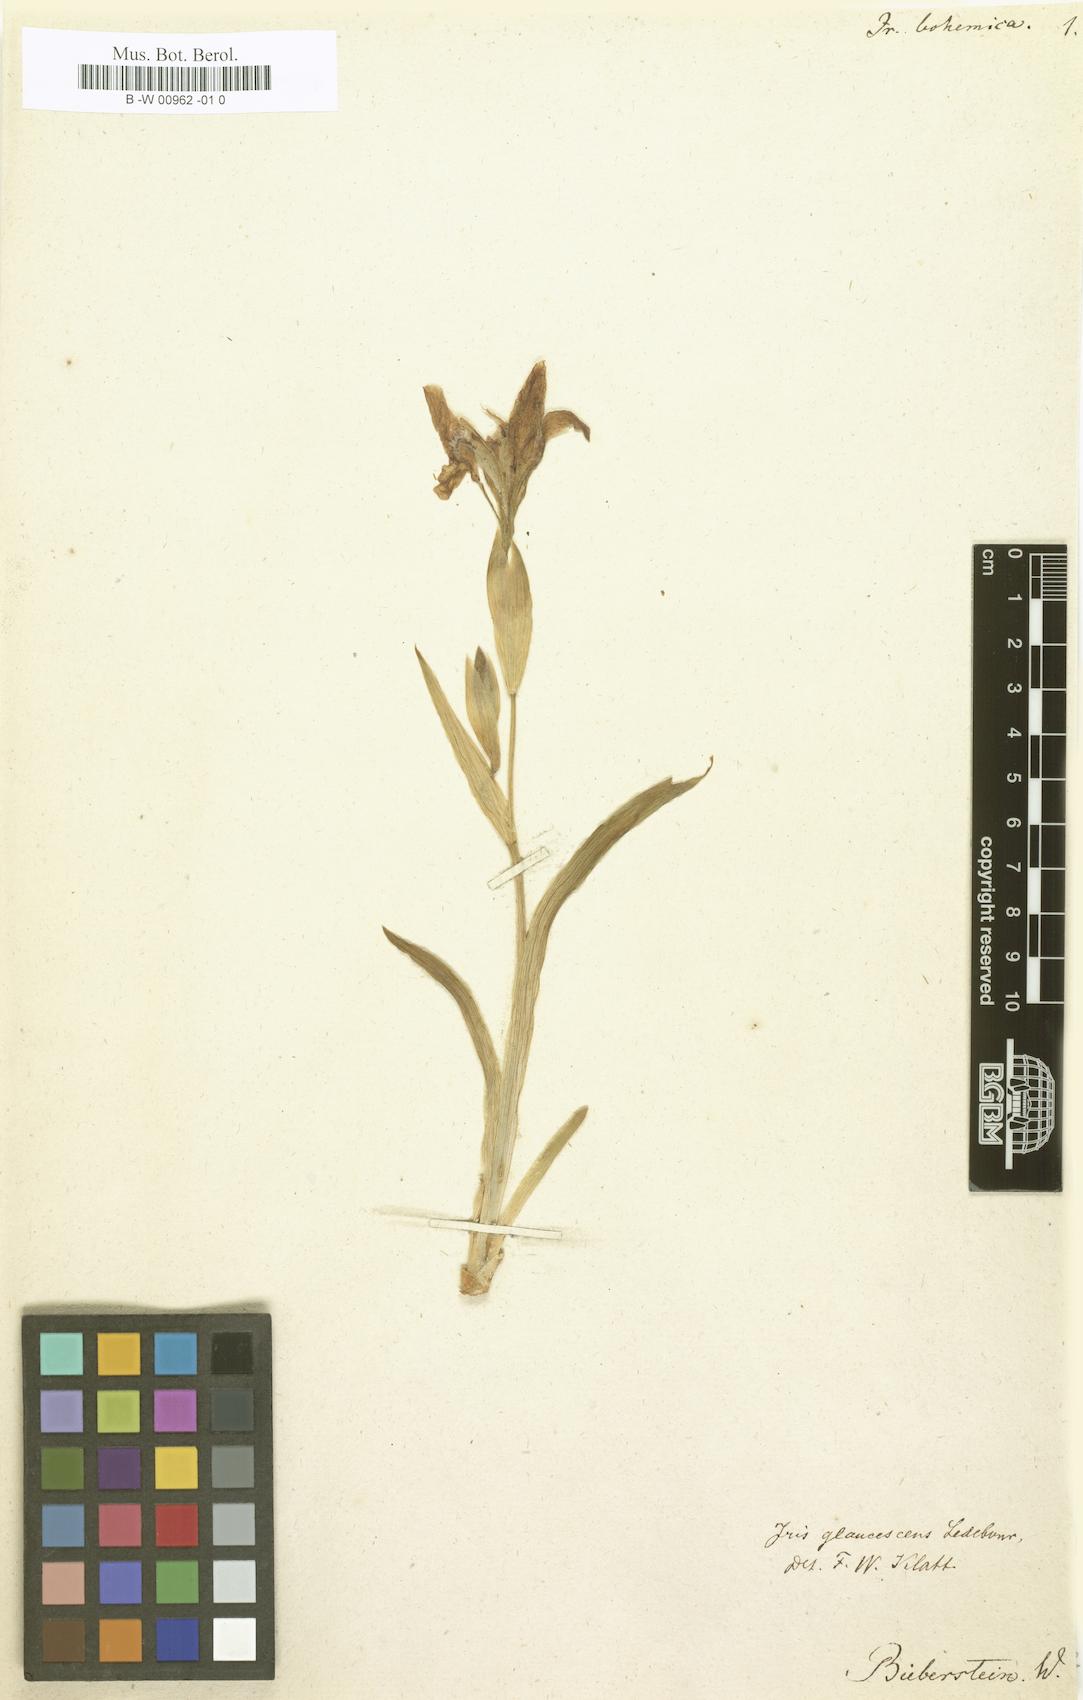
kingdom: Plantae
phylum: Tracheophyta
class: Liliopsida
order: Asparagales
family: Iridaceae
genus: Iris
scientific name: Iris aphylla
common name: Stool iris
